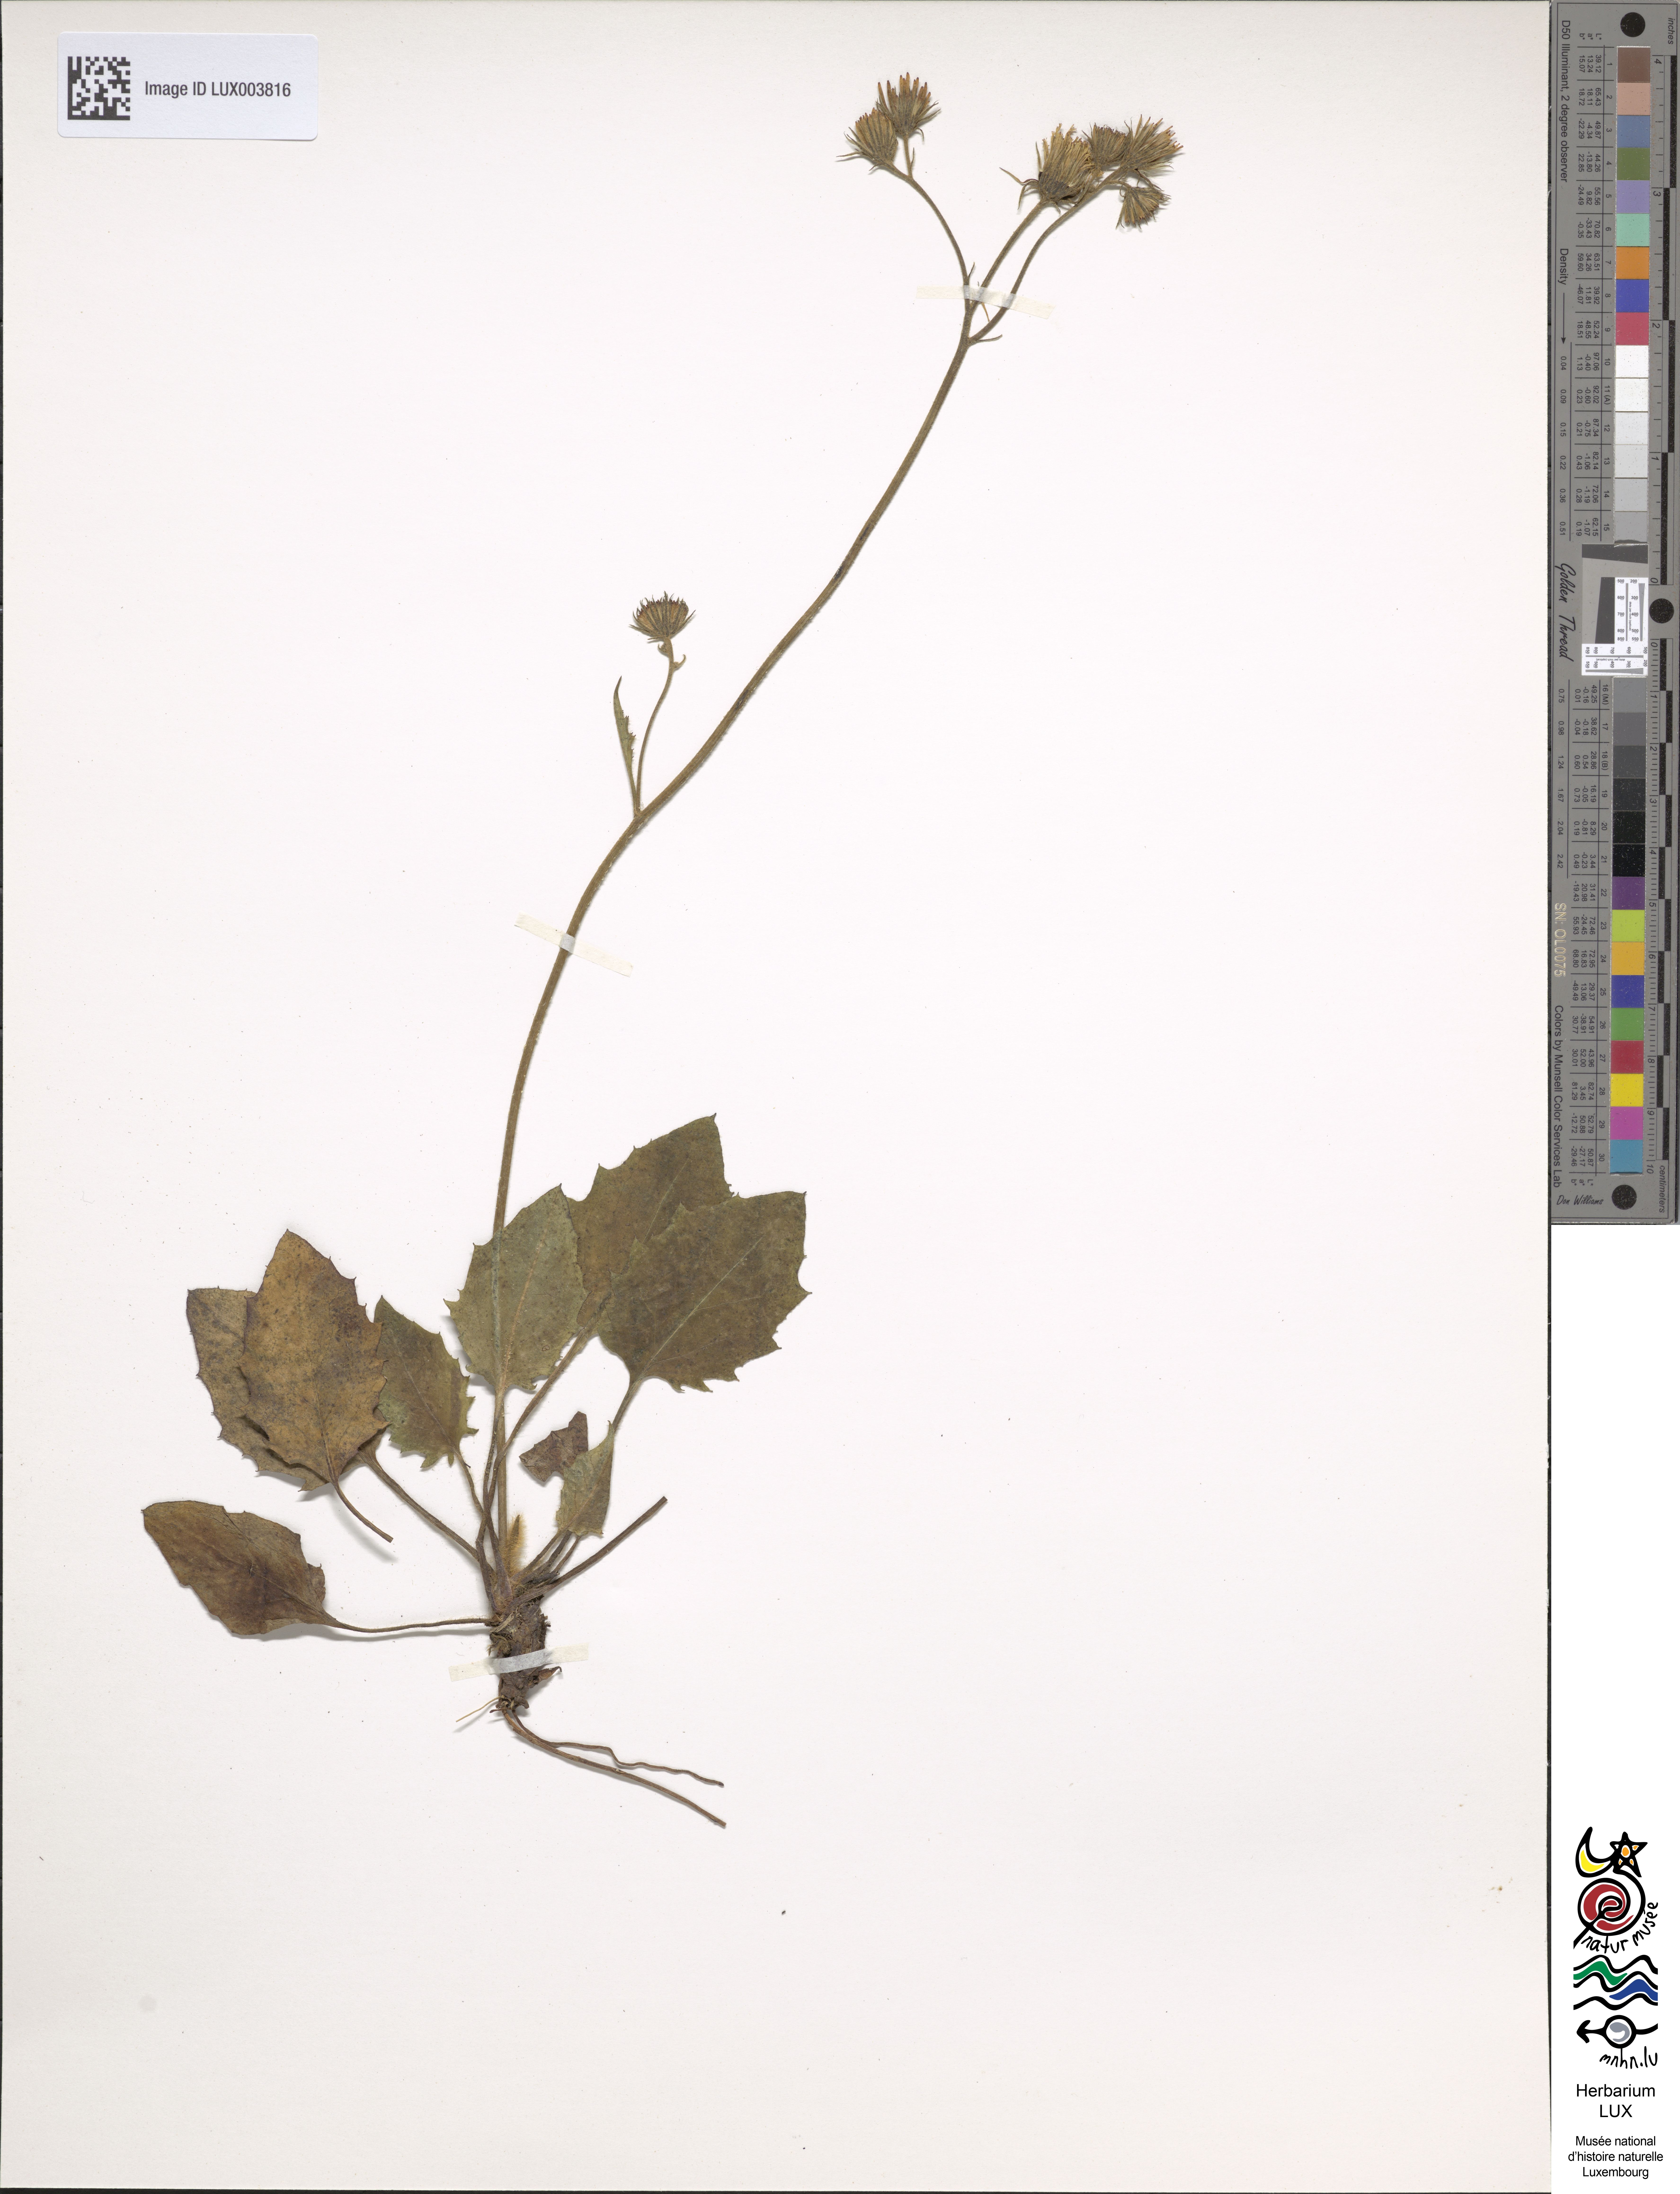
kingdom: Plantae
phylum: Tracheophyta
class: Magnoliopsida
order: Asterales
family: Asteraceae
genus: Hieracium
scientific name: Hieracium caesium
